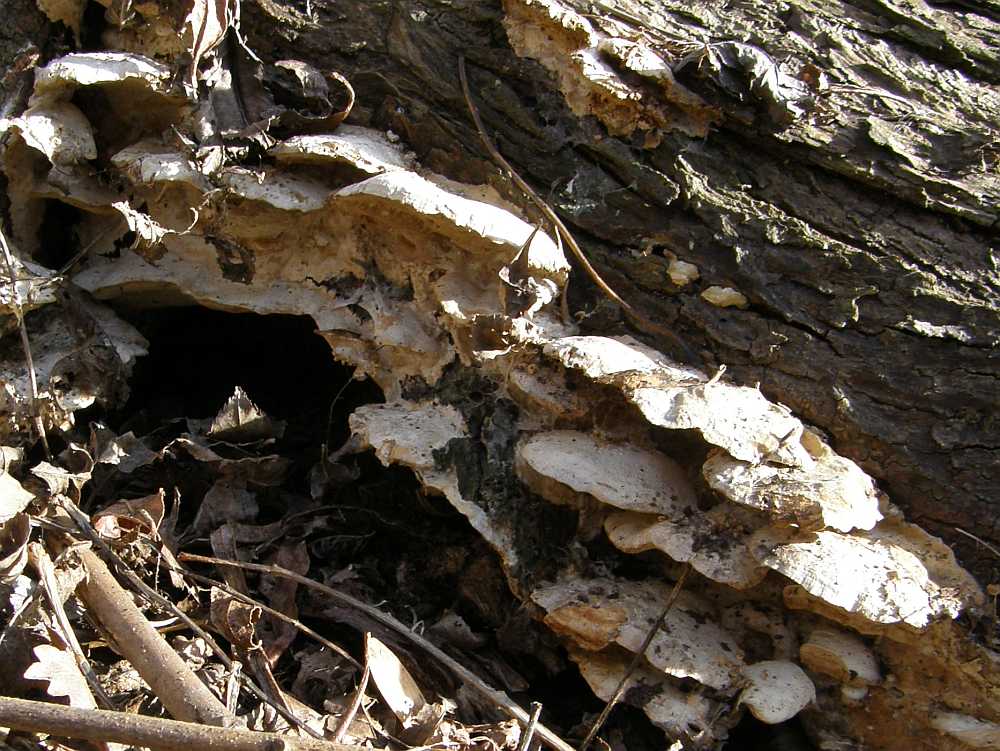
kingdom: Fungi
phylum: Basidiomycota
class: Agaricomycetes
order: Polyporales
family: Phanerochaetaceae
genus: Bjerkandera
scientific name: Bjerkandera fumosa
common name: grågul sodporesvamp
